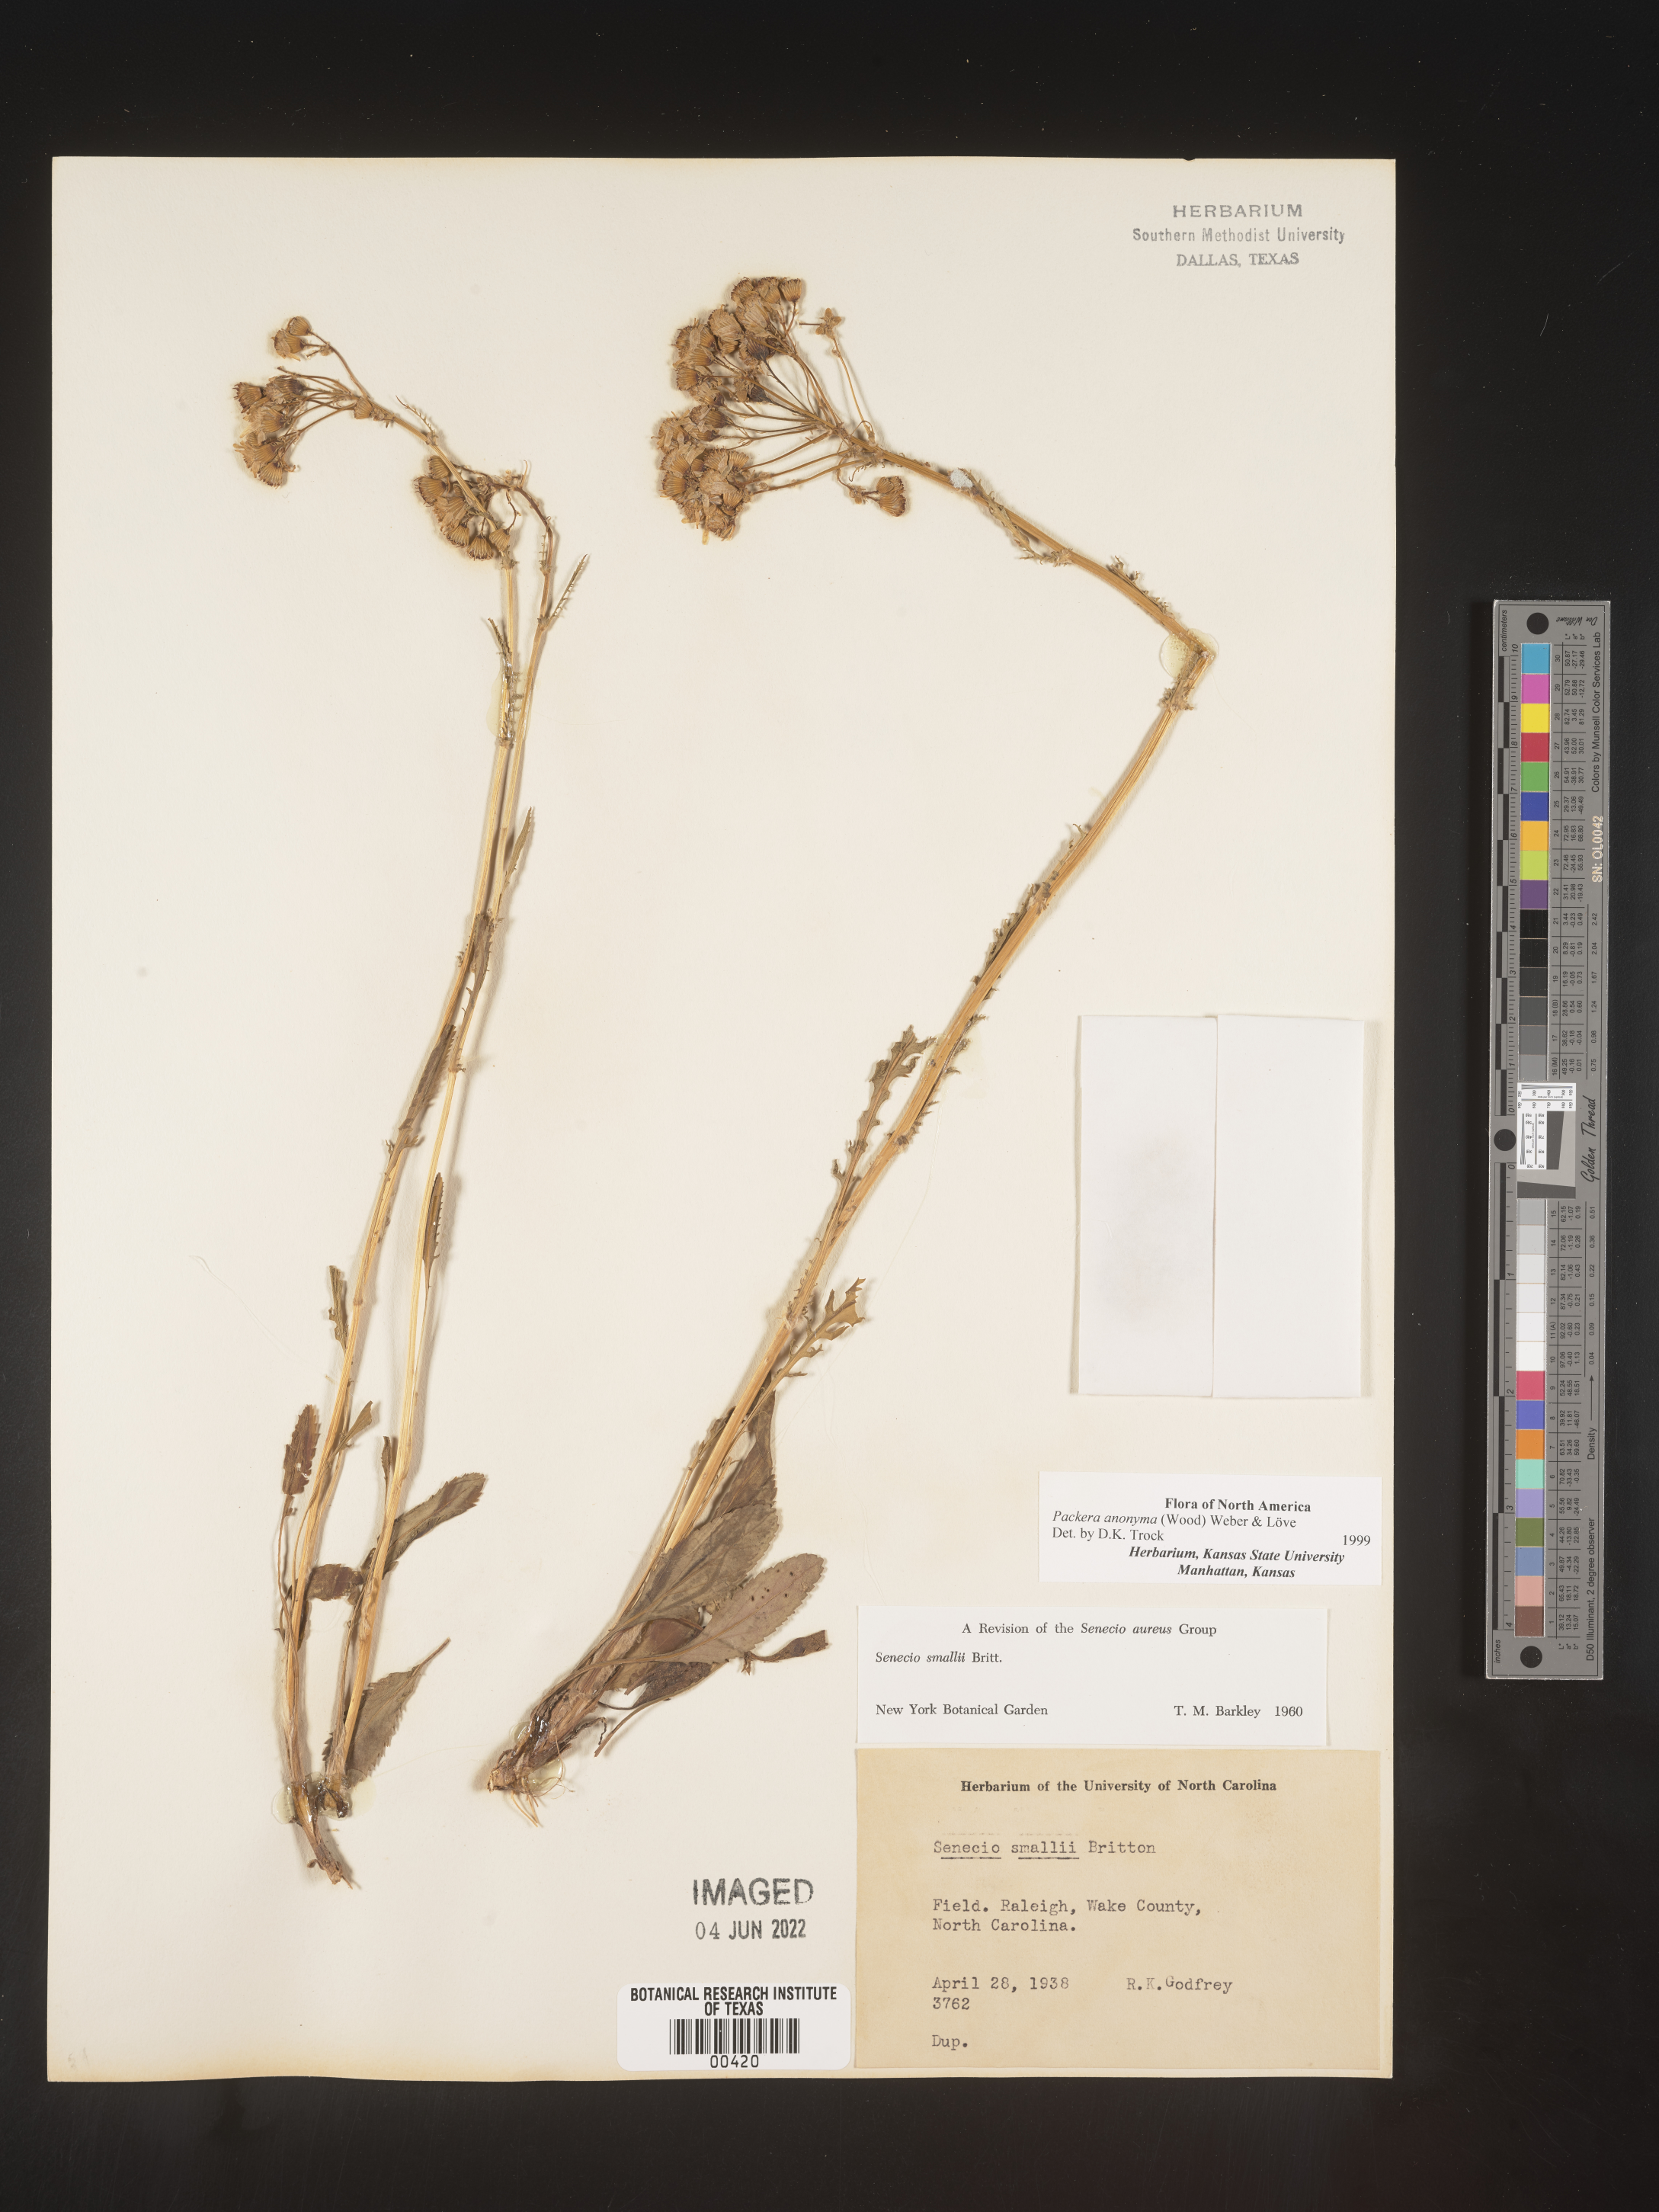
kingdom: Plantae
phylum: Tracheophyta
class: Magnoliopsida
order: Asterales
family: Asteraceae
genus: Packera
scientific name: Packera anonyma
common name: Small ragwort
